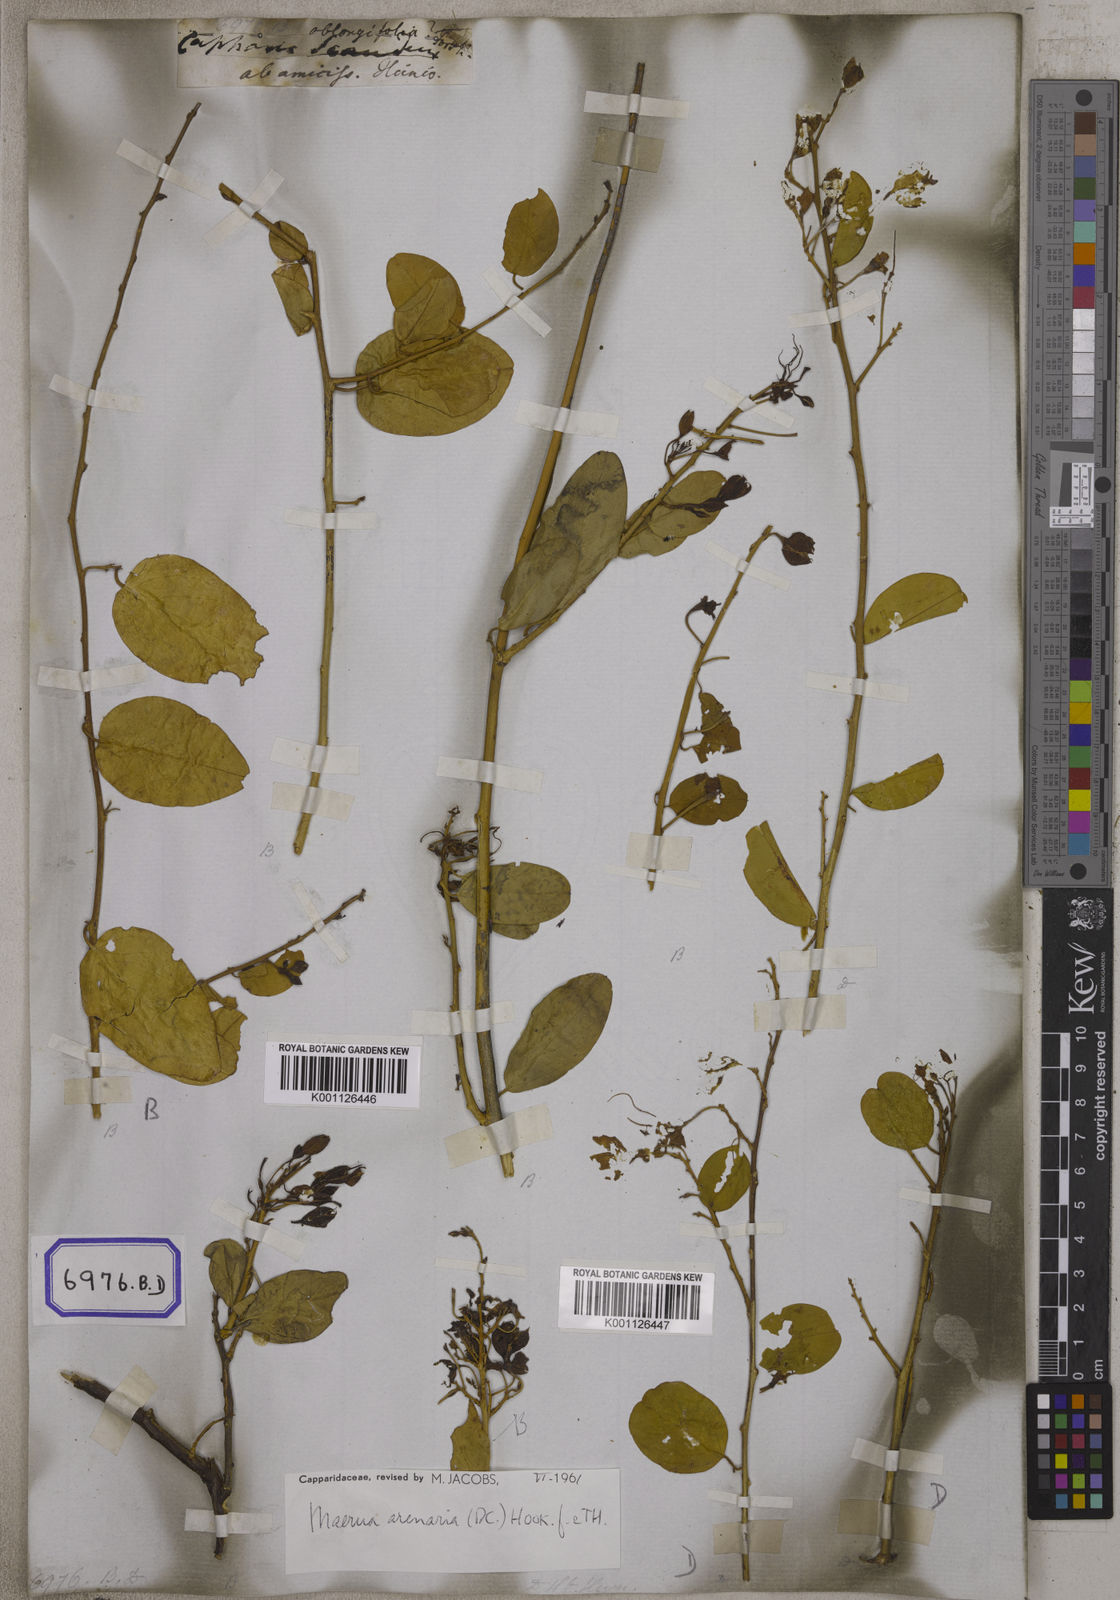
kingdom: Plantae
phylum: Tracheophyta
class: Magnoliopsida
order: Brassicales
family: Capparaceae
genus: Maerua
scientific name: Maerua oblongifolia
